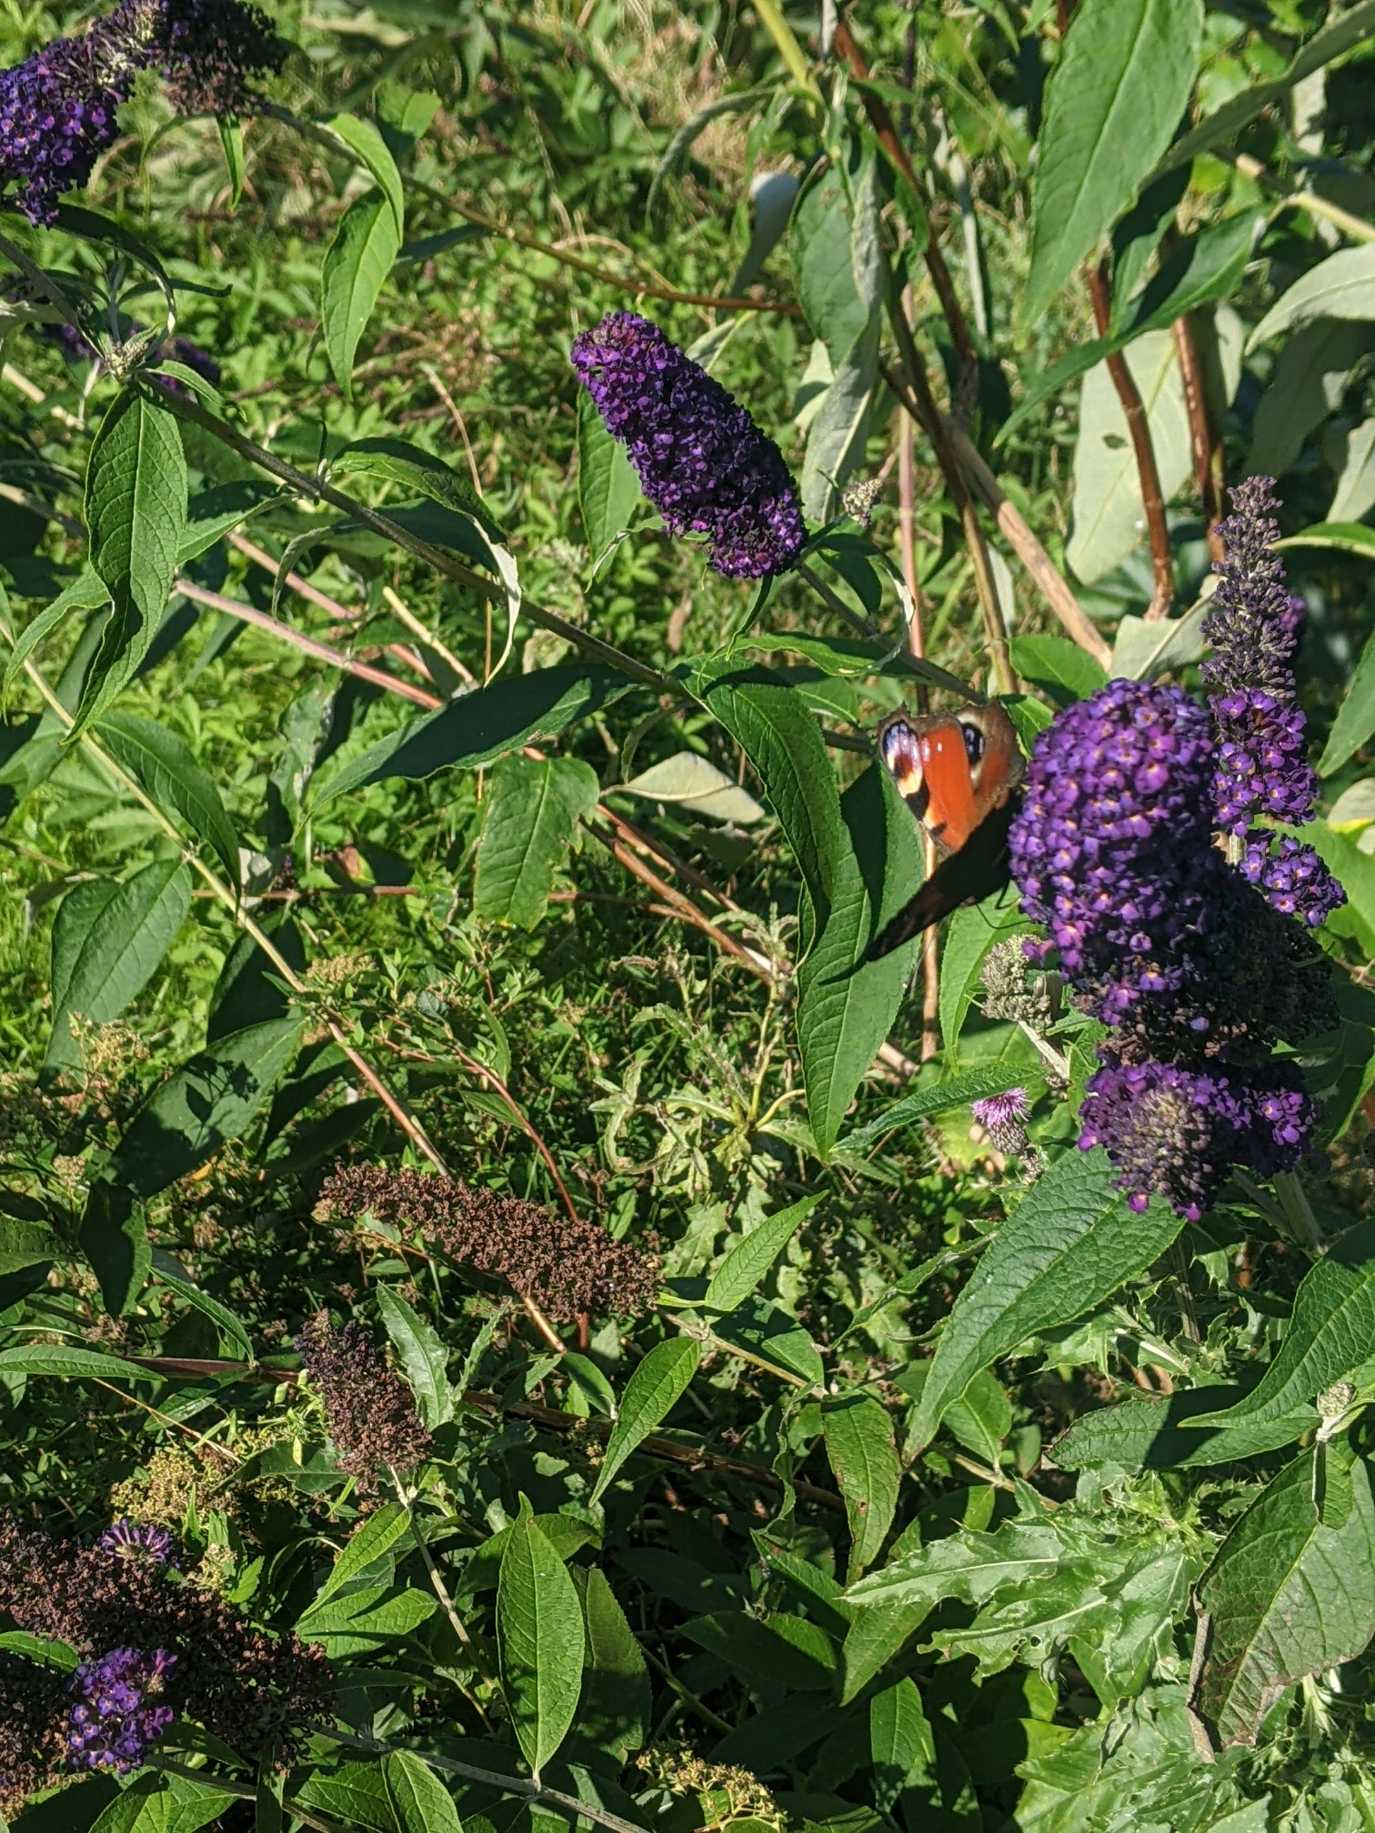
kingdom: Animalia
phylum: Arthropoda
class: Insecta
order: Lepidoptera
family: Nymphalidae
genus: Aglais
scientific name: Aglais io
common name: Dagpåfugleøje
